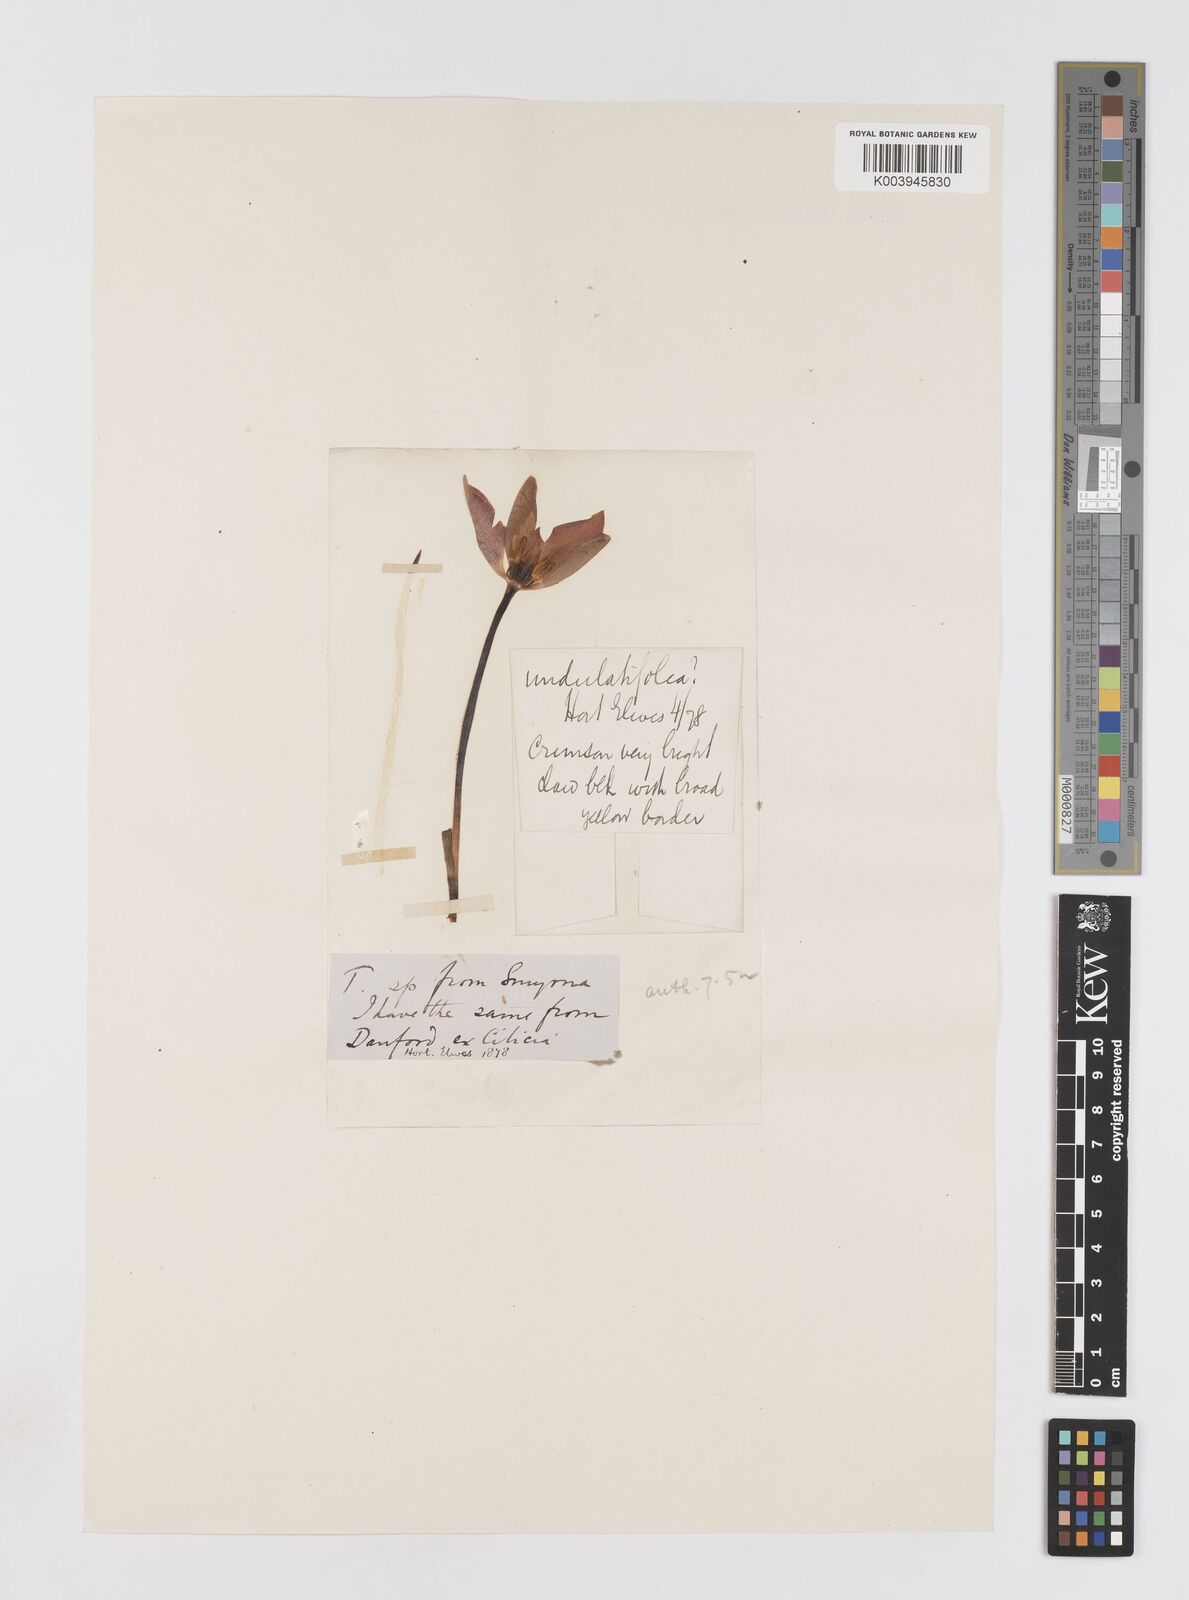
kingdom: Plantae
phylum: Tracheophyta
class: Liliopsida
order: Liliales
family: Liliaceae
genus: Tulipa
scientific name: Tulipa agenensis
